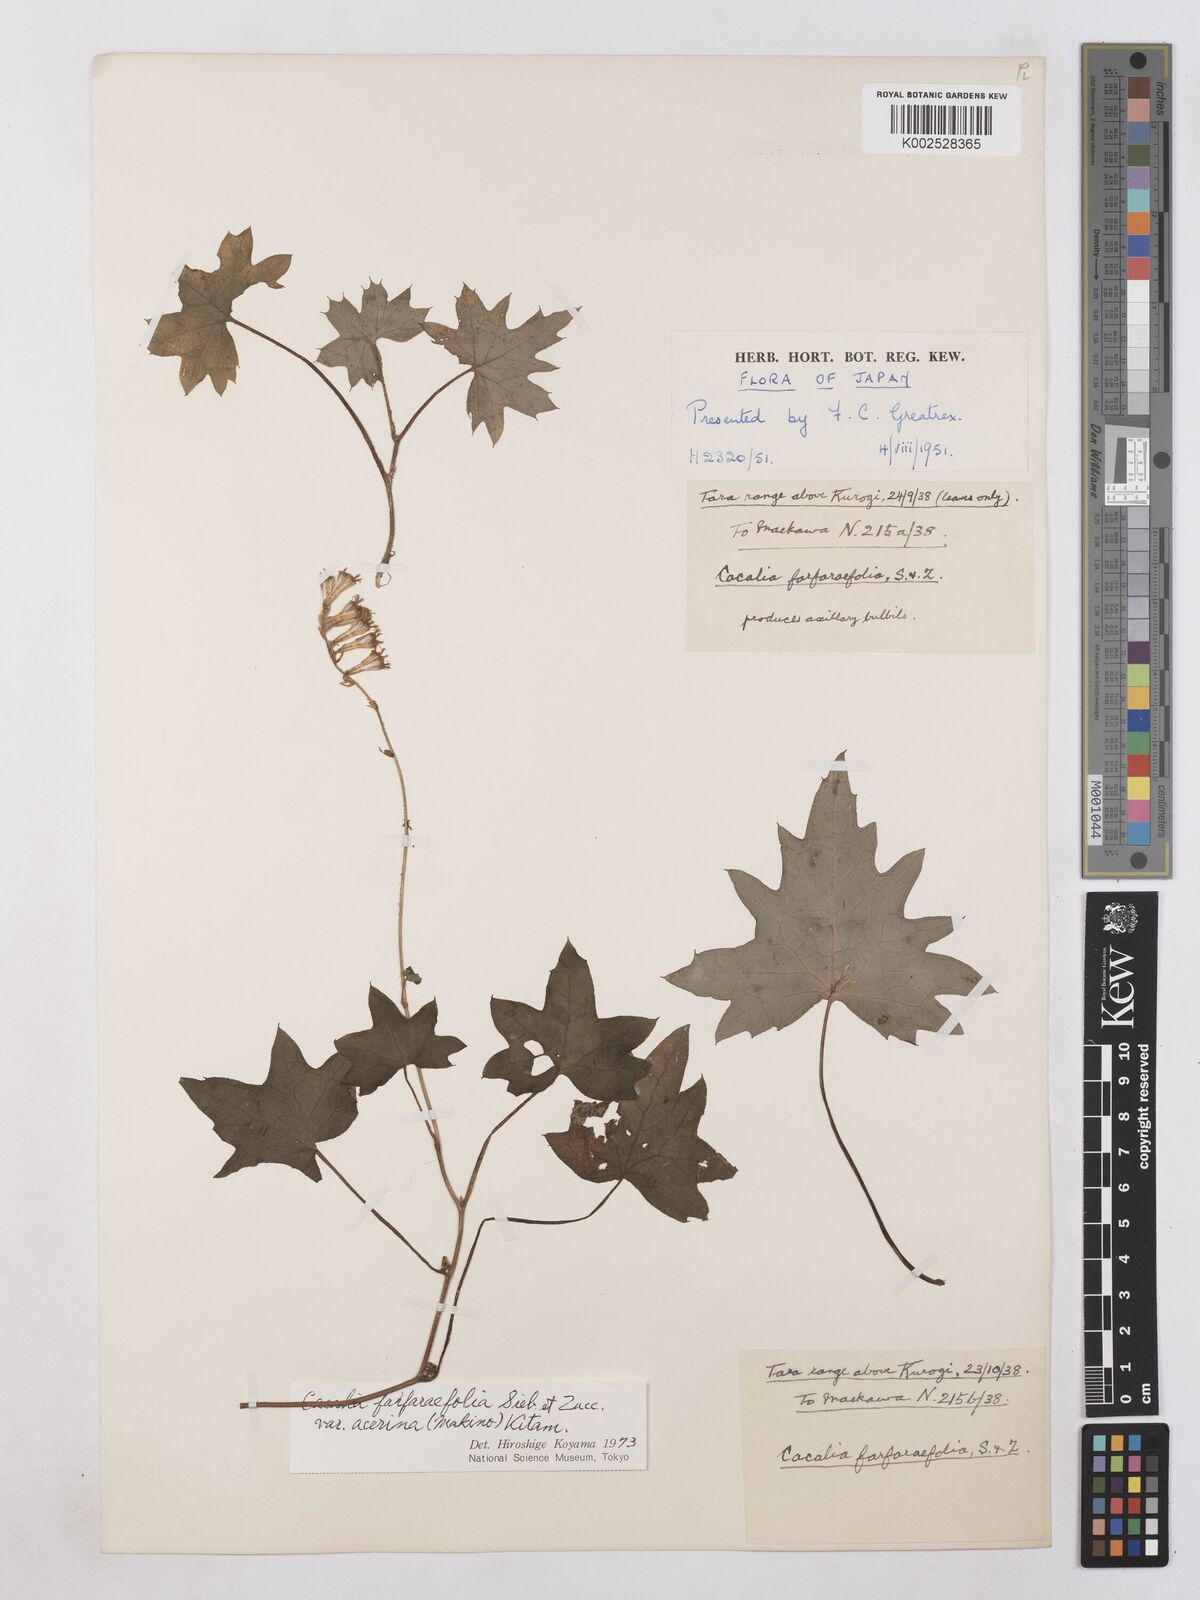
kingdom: Plantae
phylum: Tracheophyta
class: Magnoliopsida
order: Asterales
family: Asteraceae
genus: Parasenecio
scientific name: Parasenecio farfarifolius
